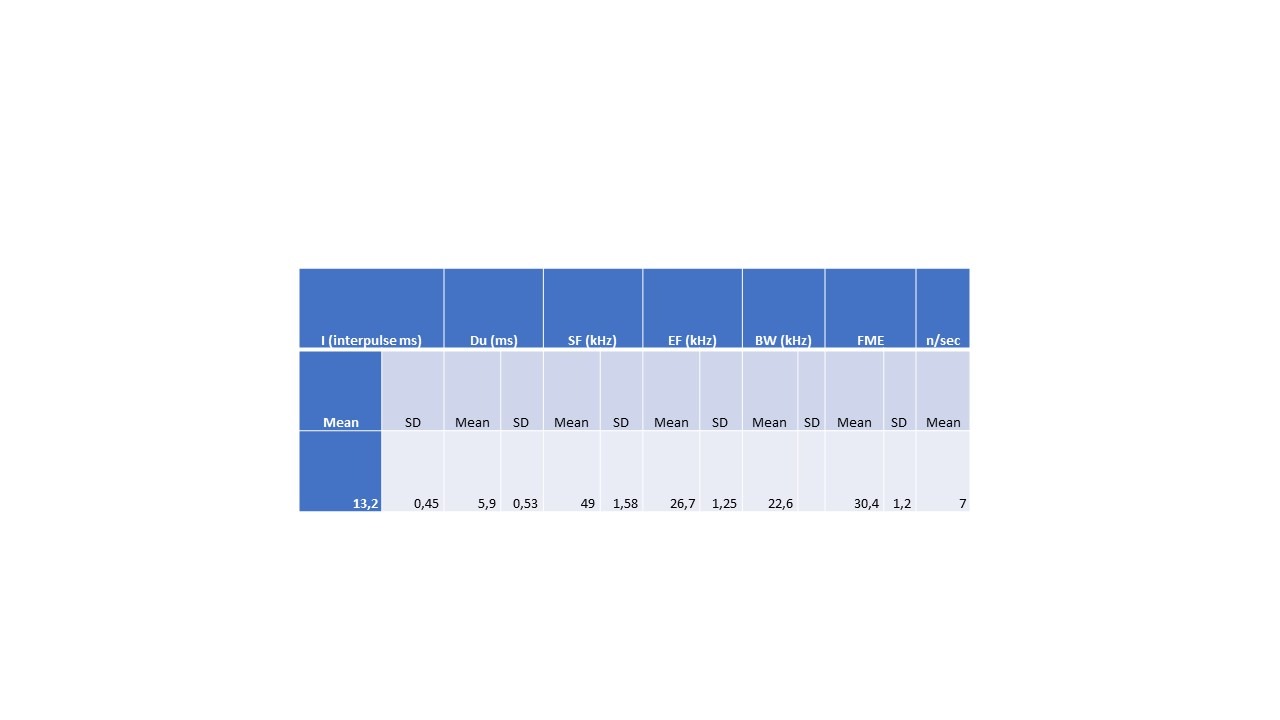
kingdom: Animalia
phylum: Chordata
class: Mammalia
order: Chiroptera
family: Vespertilionidae
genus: Eptesicus
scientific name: Eptesicus serotinus
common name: Sydflagermus
